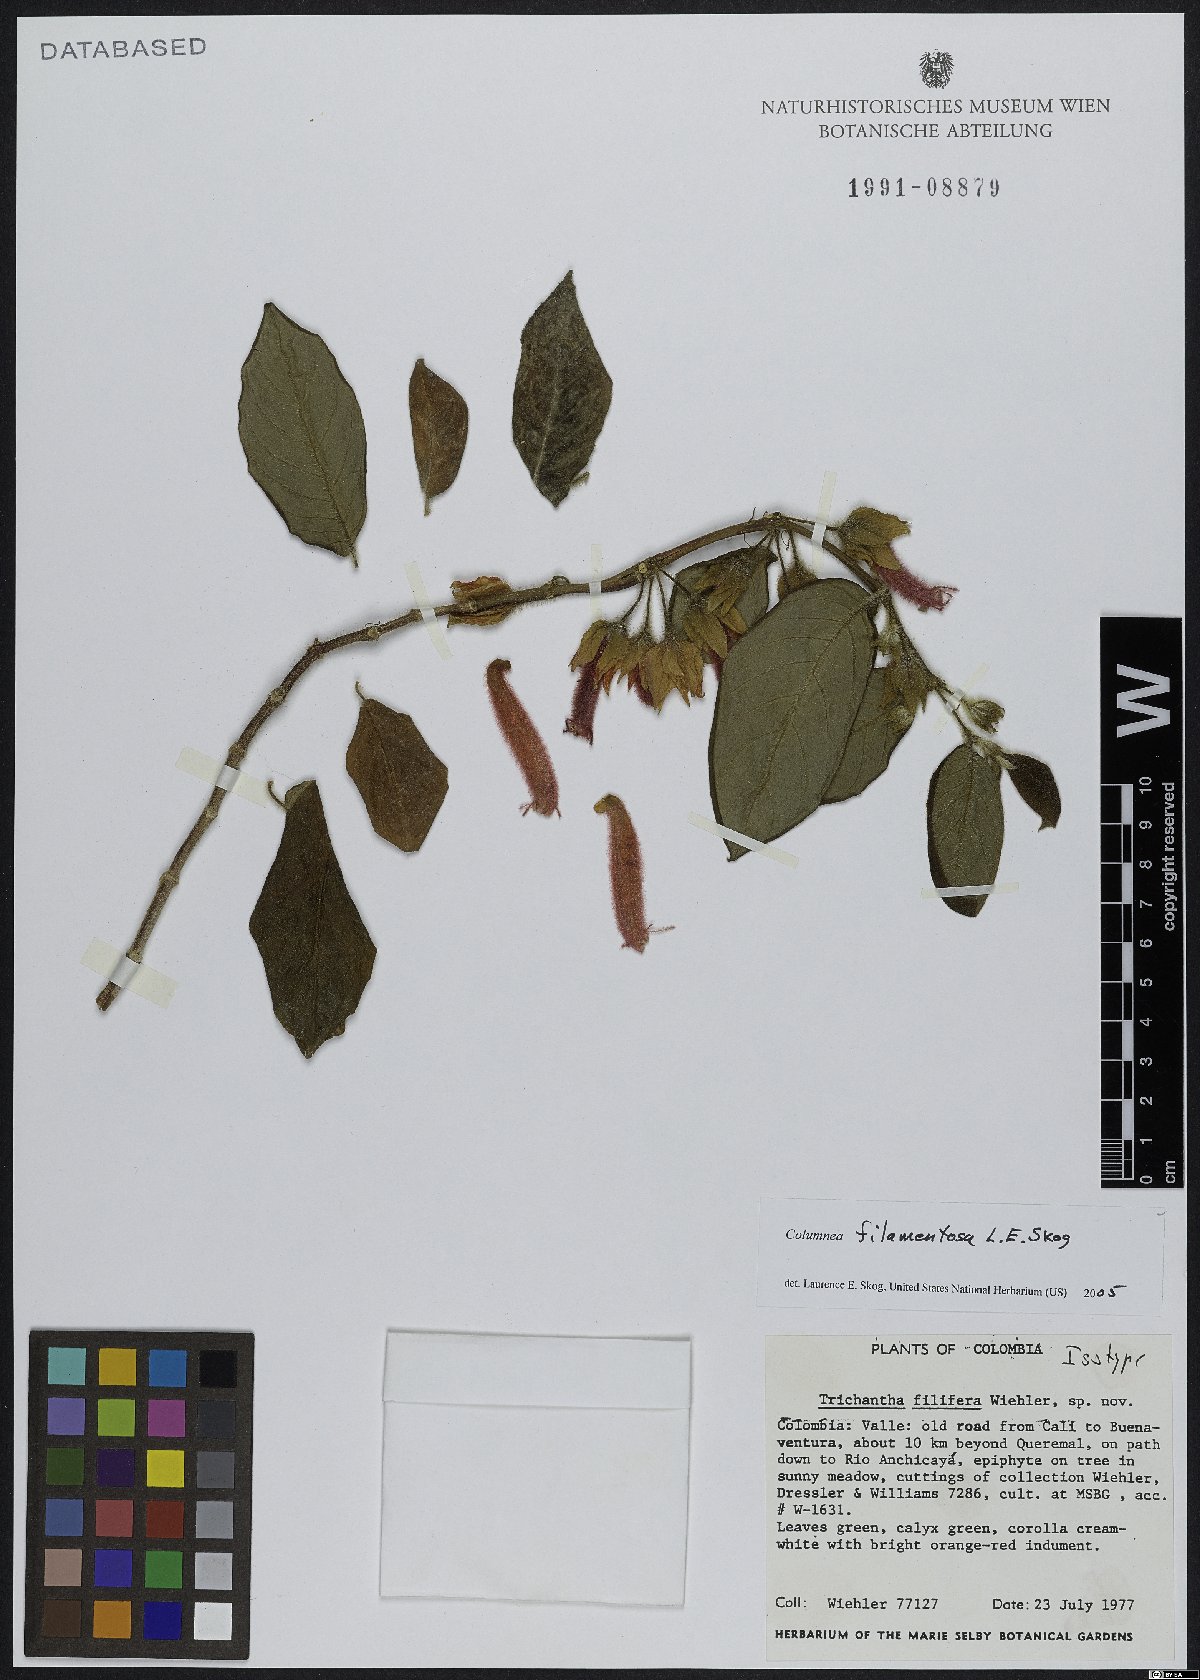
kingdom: Plantae
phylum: Tracheophyta
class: Magnoliopsida
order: Lamiales
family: Gesneriaceae
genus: Columnea
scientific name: Columnea filamentosa
